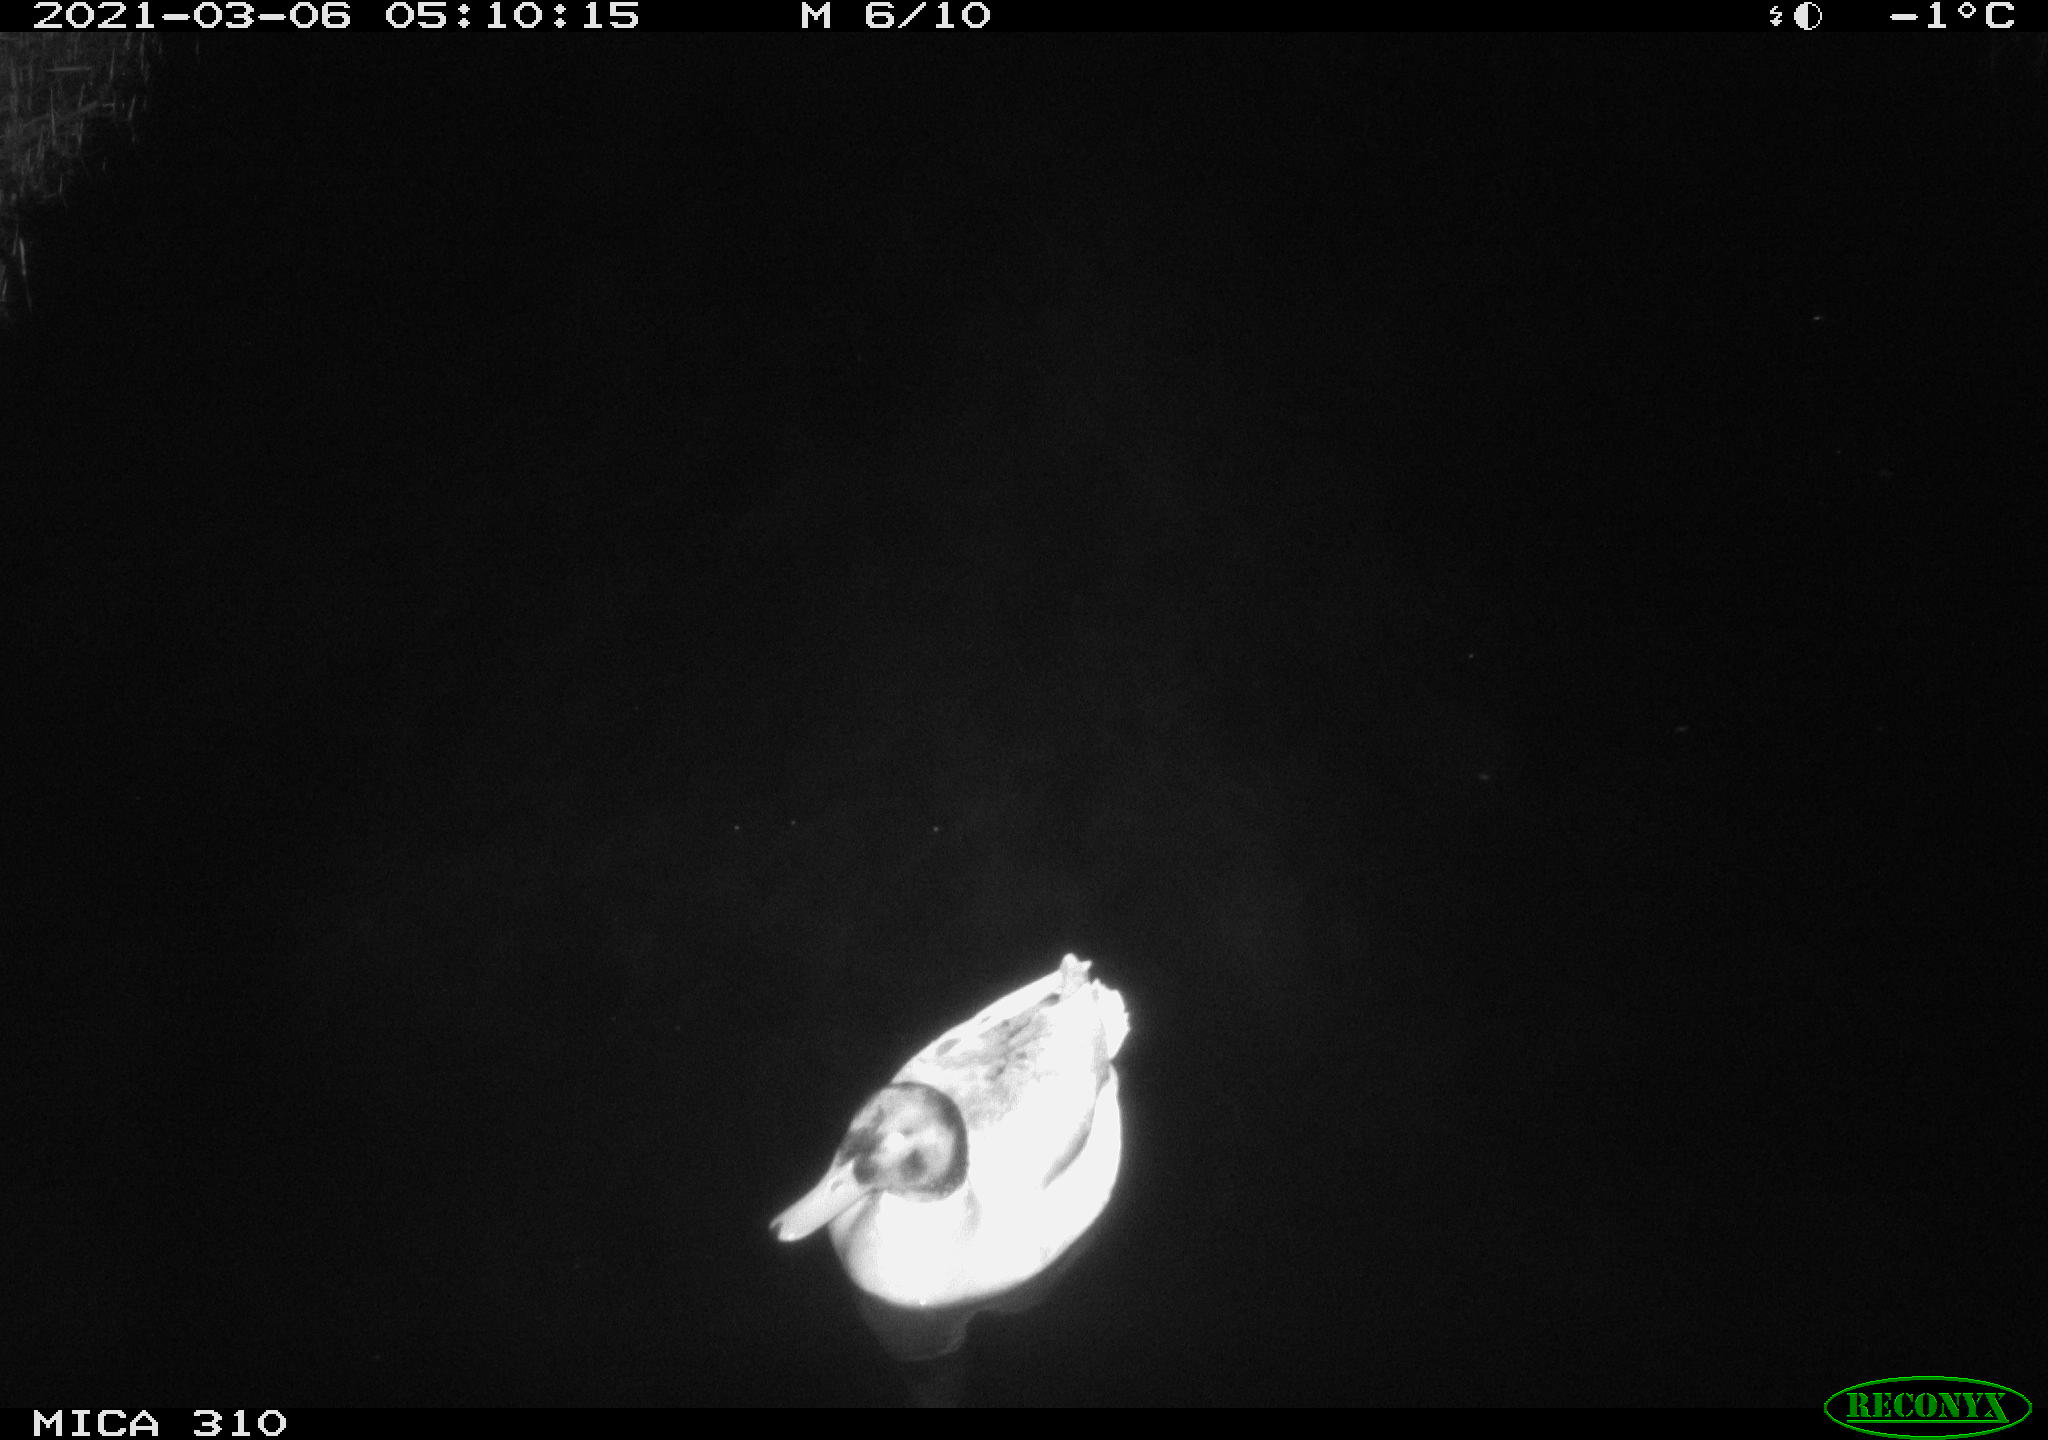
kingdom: Animalia
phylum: Chordata
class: Aves
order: Anseriformes
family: Anatidae
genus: Anas
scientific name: Anas platyrhynchos
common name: Mallard
